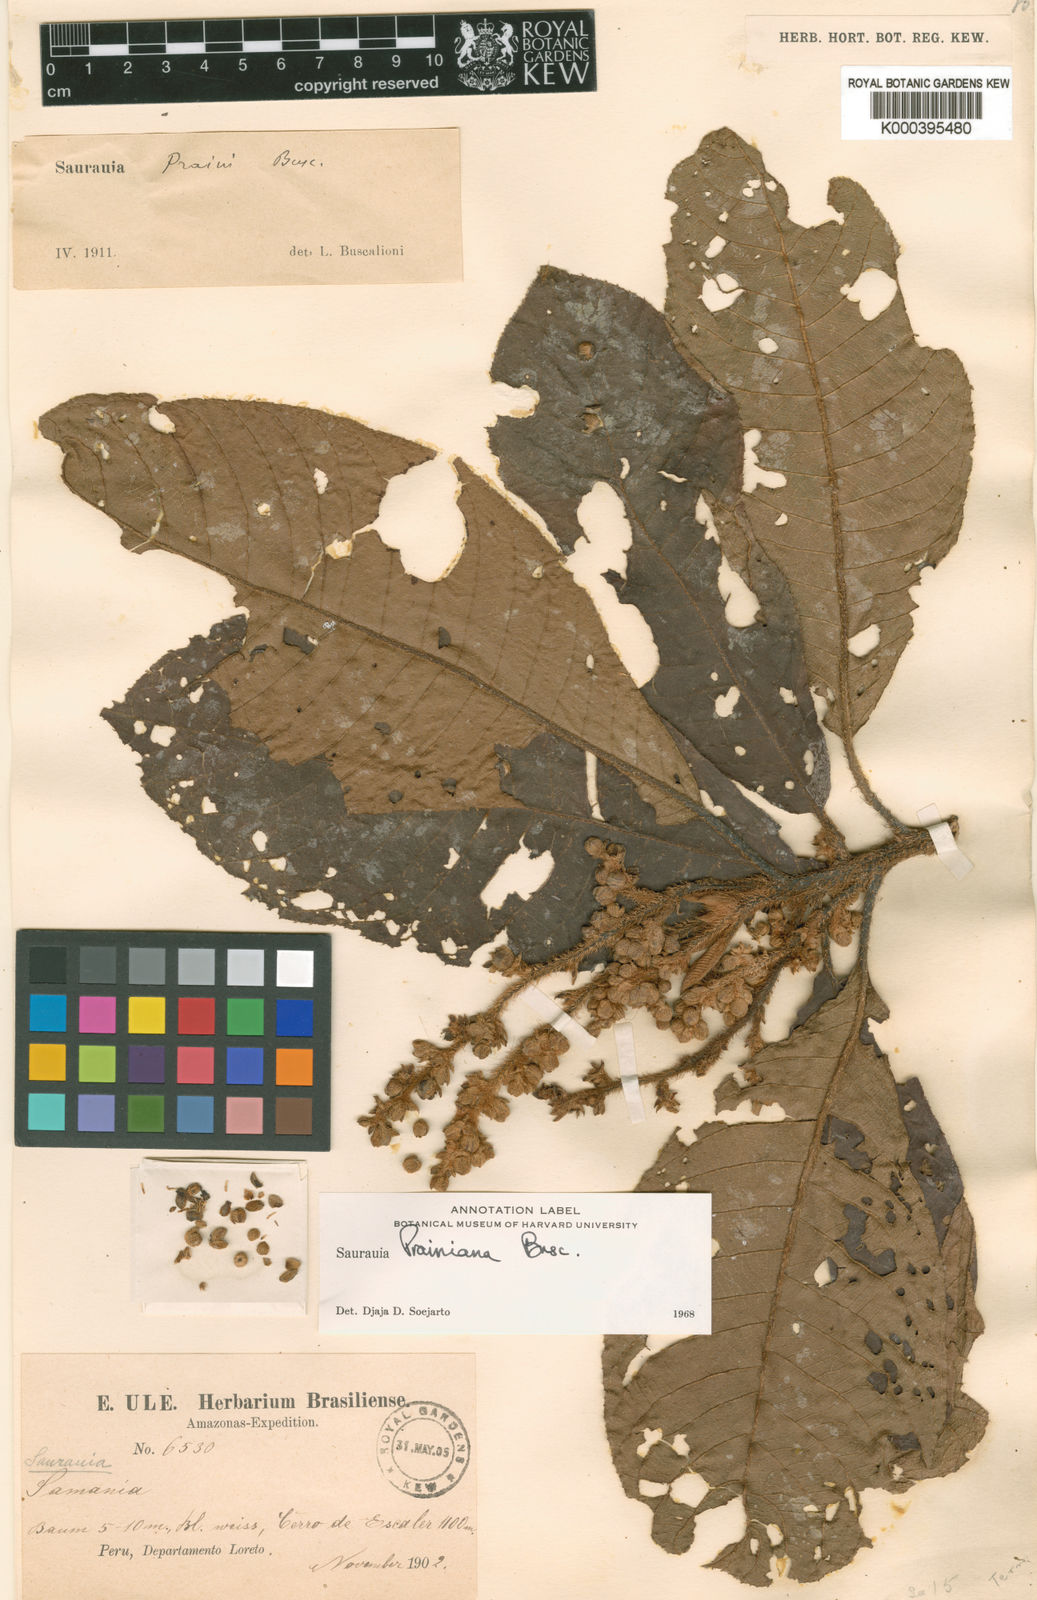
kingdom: Plantae
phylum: Tracheophyta
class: Magnoliopsida
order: Ericales
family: Actinidiaceae
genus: Saurauia
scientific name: Saurauia prainiana
